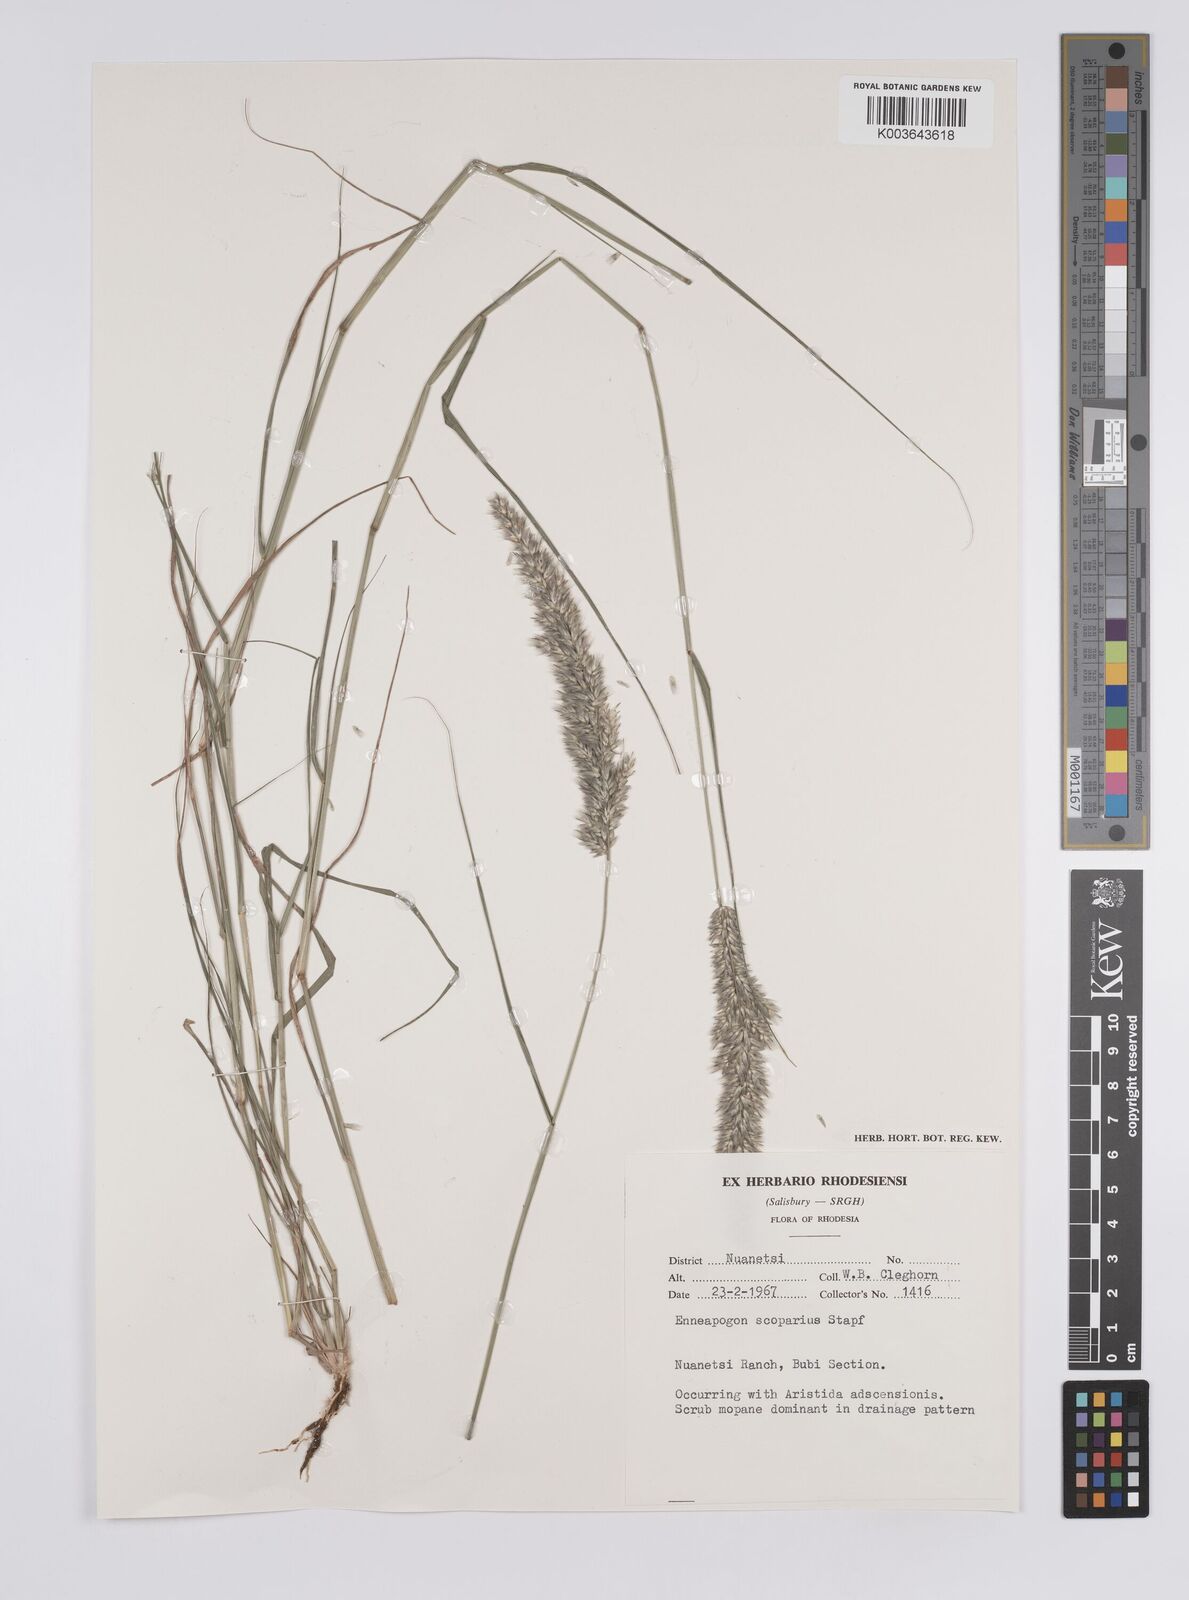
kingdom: Plantae
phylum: Tracheophyta
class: Liliopsida
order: Poales
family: Poaceae
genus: Enneapogon
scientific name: Enneapogon cenchroides
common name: Soft feather pappusgrass
